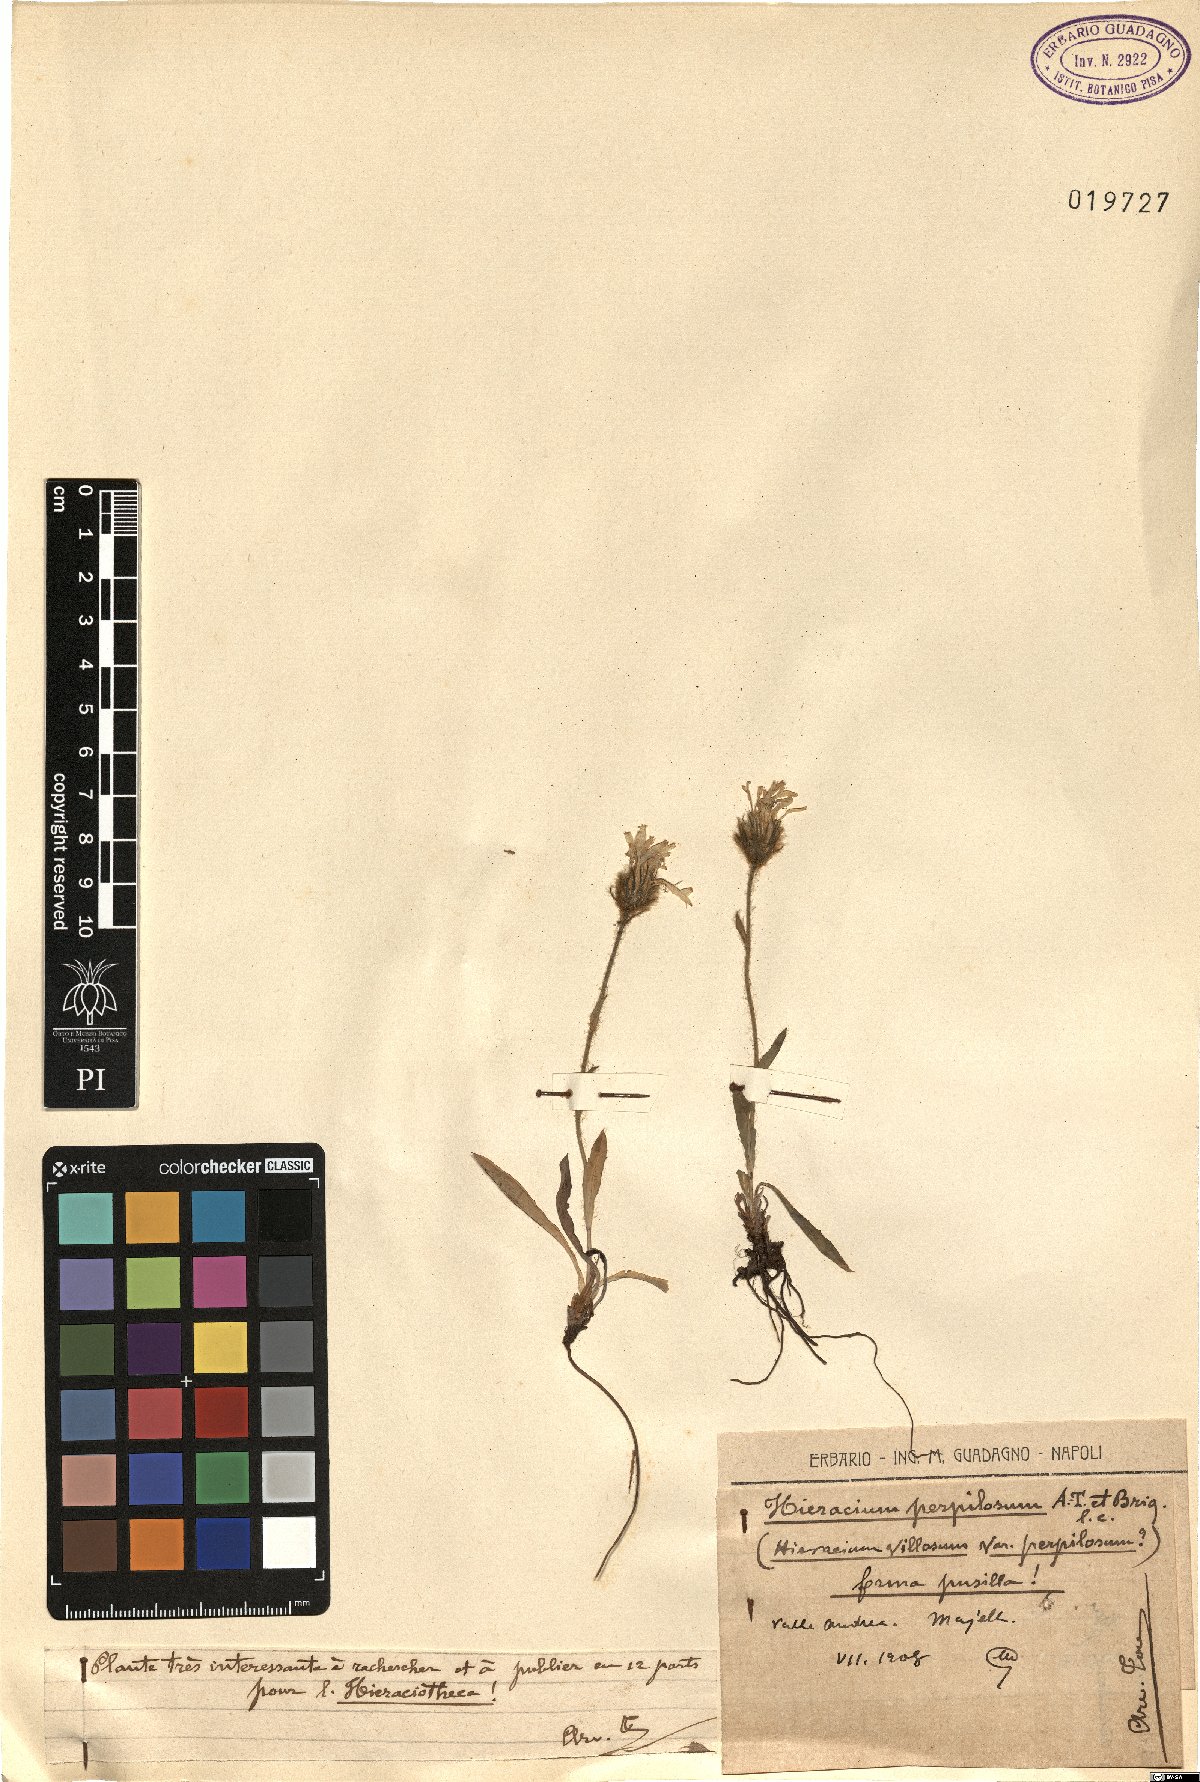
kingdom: Plantae
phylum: Tracheophyta
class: Magnoliopsida
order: Asterales
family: Asteraceae
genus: Hieracium
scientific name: Hieracium pilosum
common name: Fimbriate-pitted hawkweed
